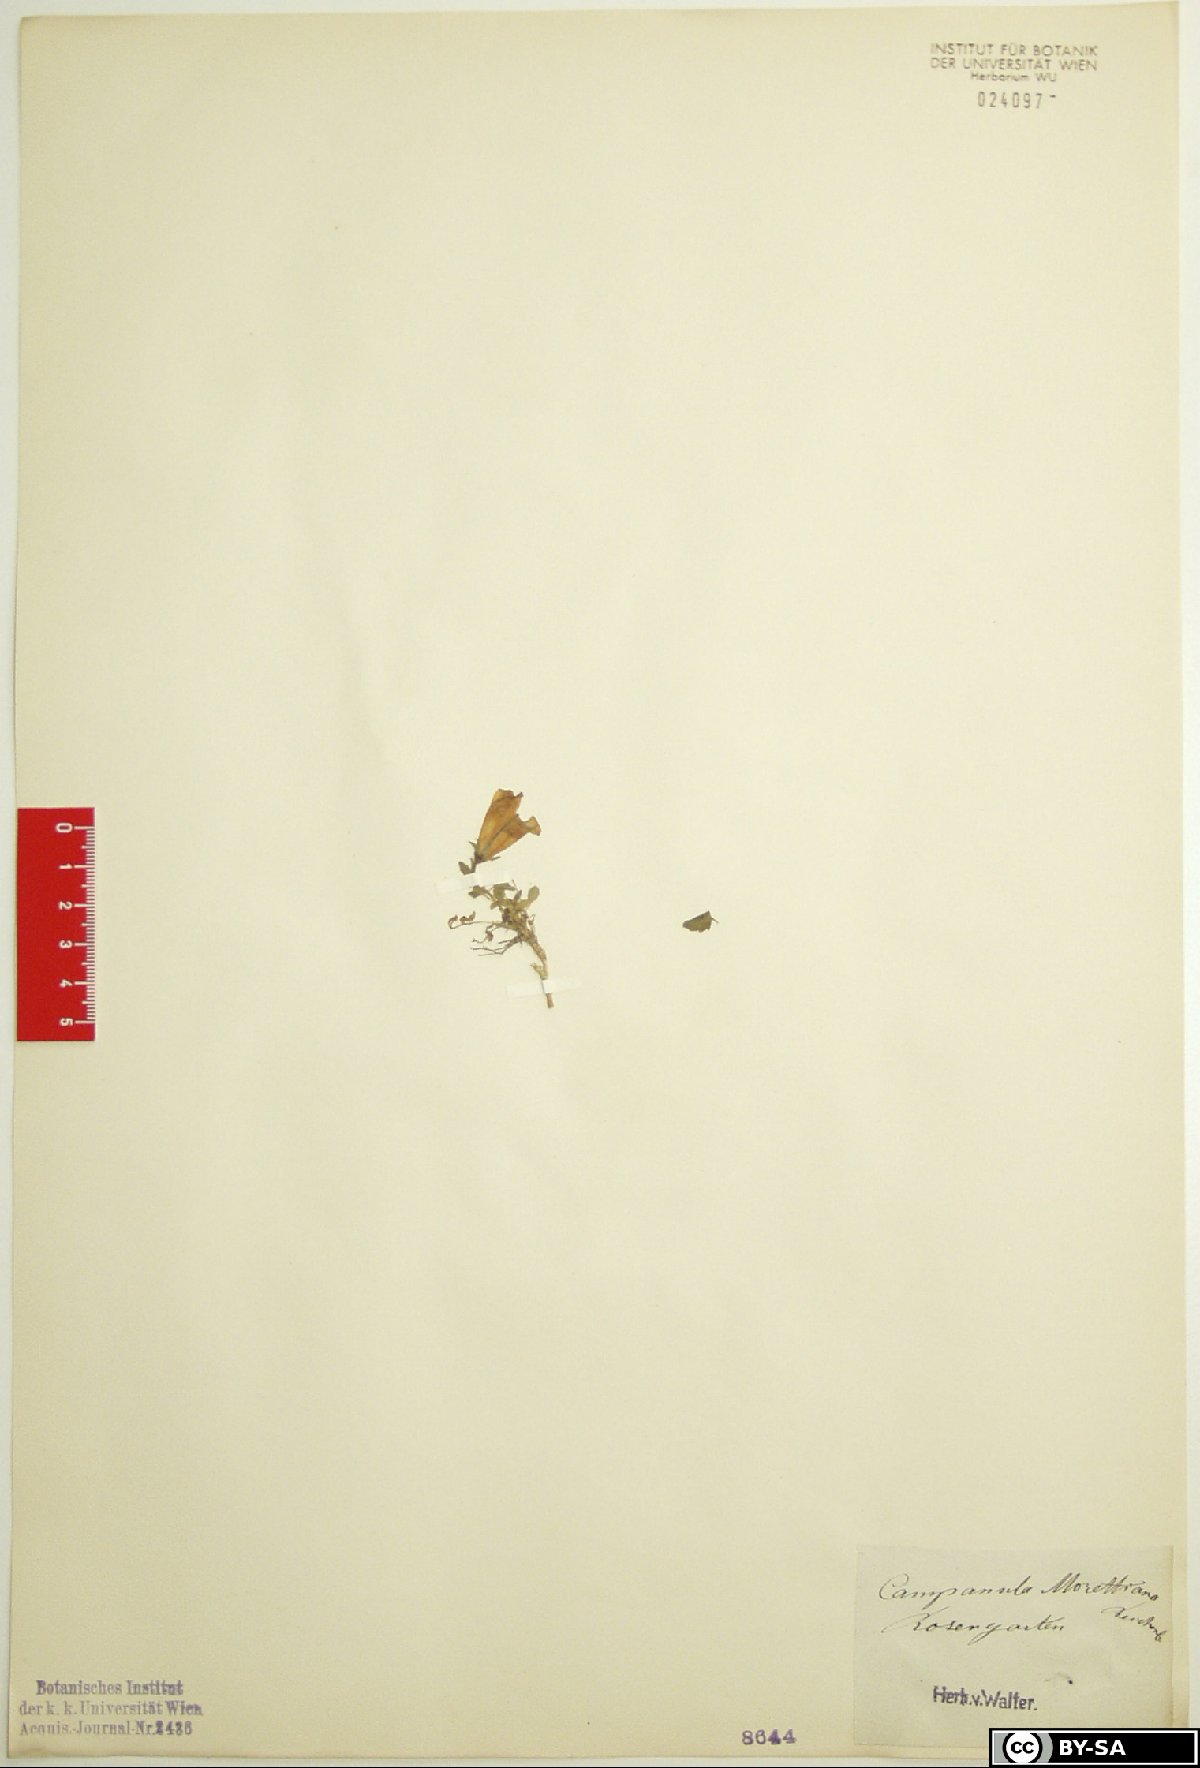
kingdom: Plantae
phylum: Tracheophyta
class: Magnoliopsida
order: Asterales
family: Campanulaceae
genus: Campanula
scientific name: Campanula morettiana
